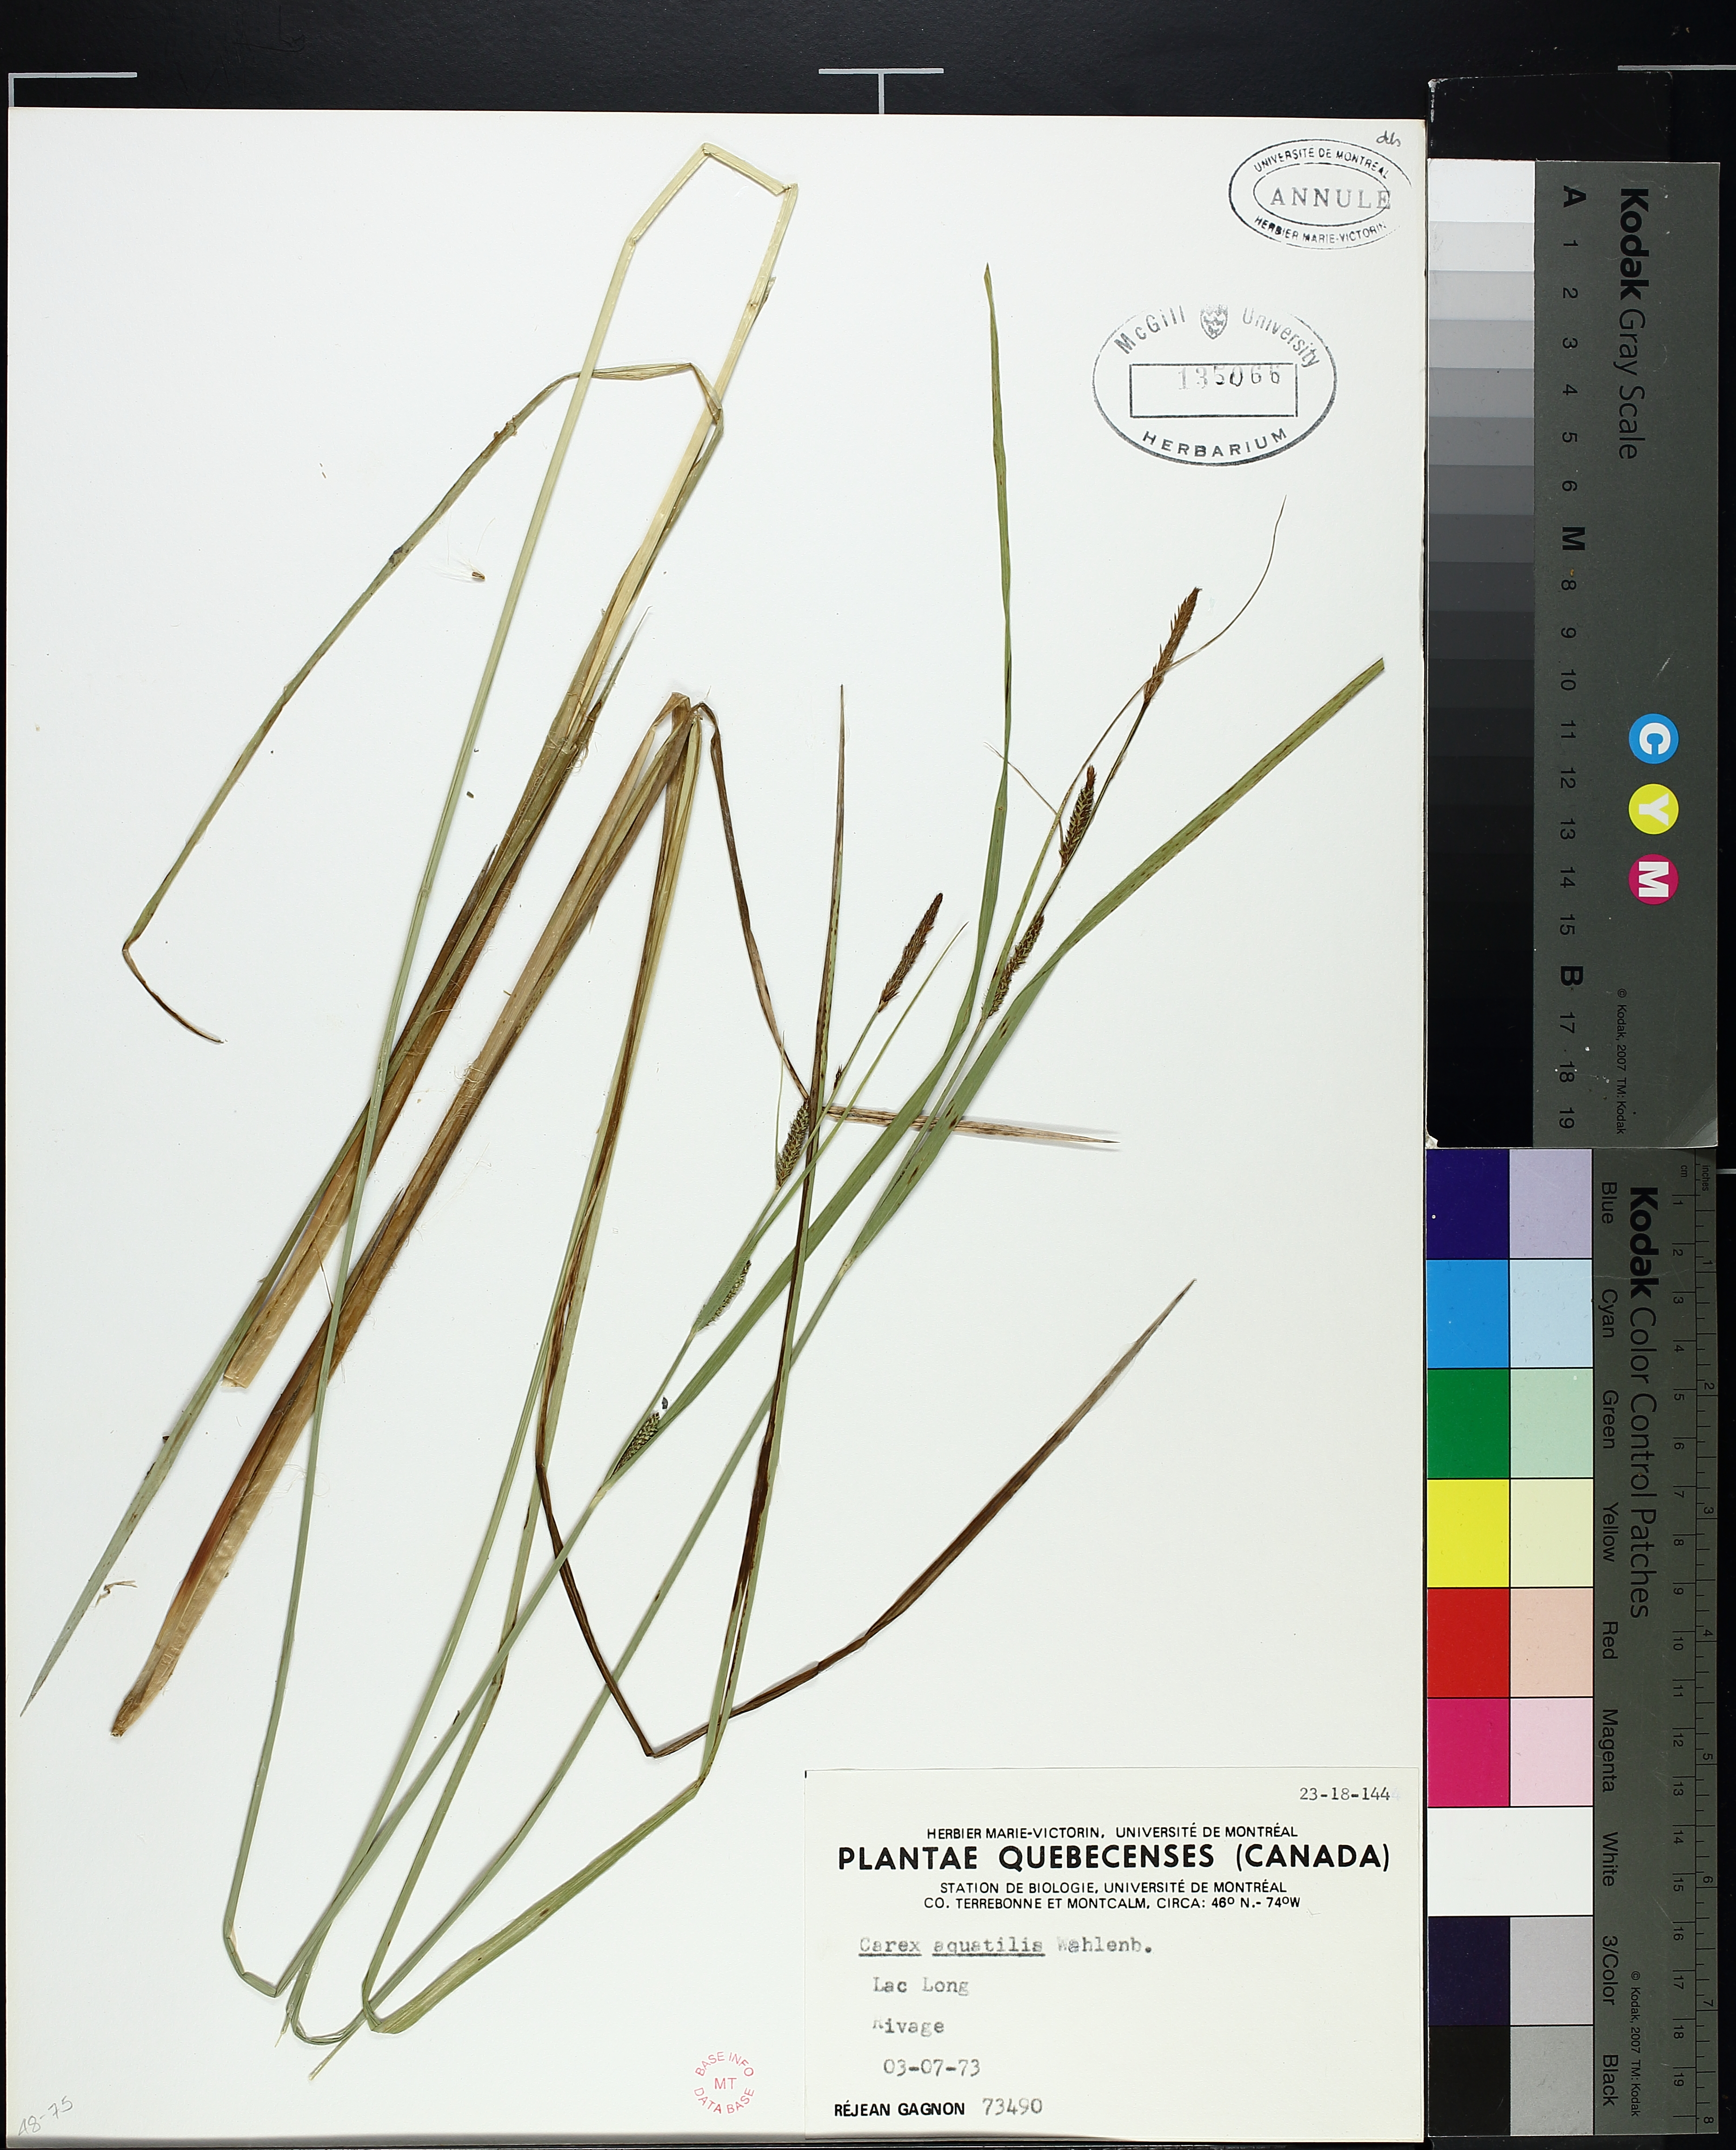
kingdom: Plantae
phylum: Tracheophyta
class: Liliopsida
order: Poales
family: Cyperaceae
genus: Carex
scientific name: Carex aquatilis
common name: Water sedge
